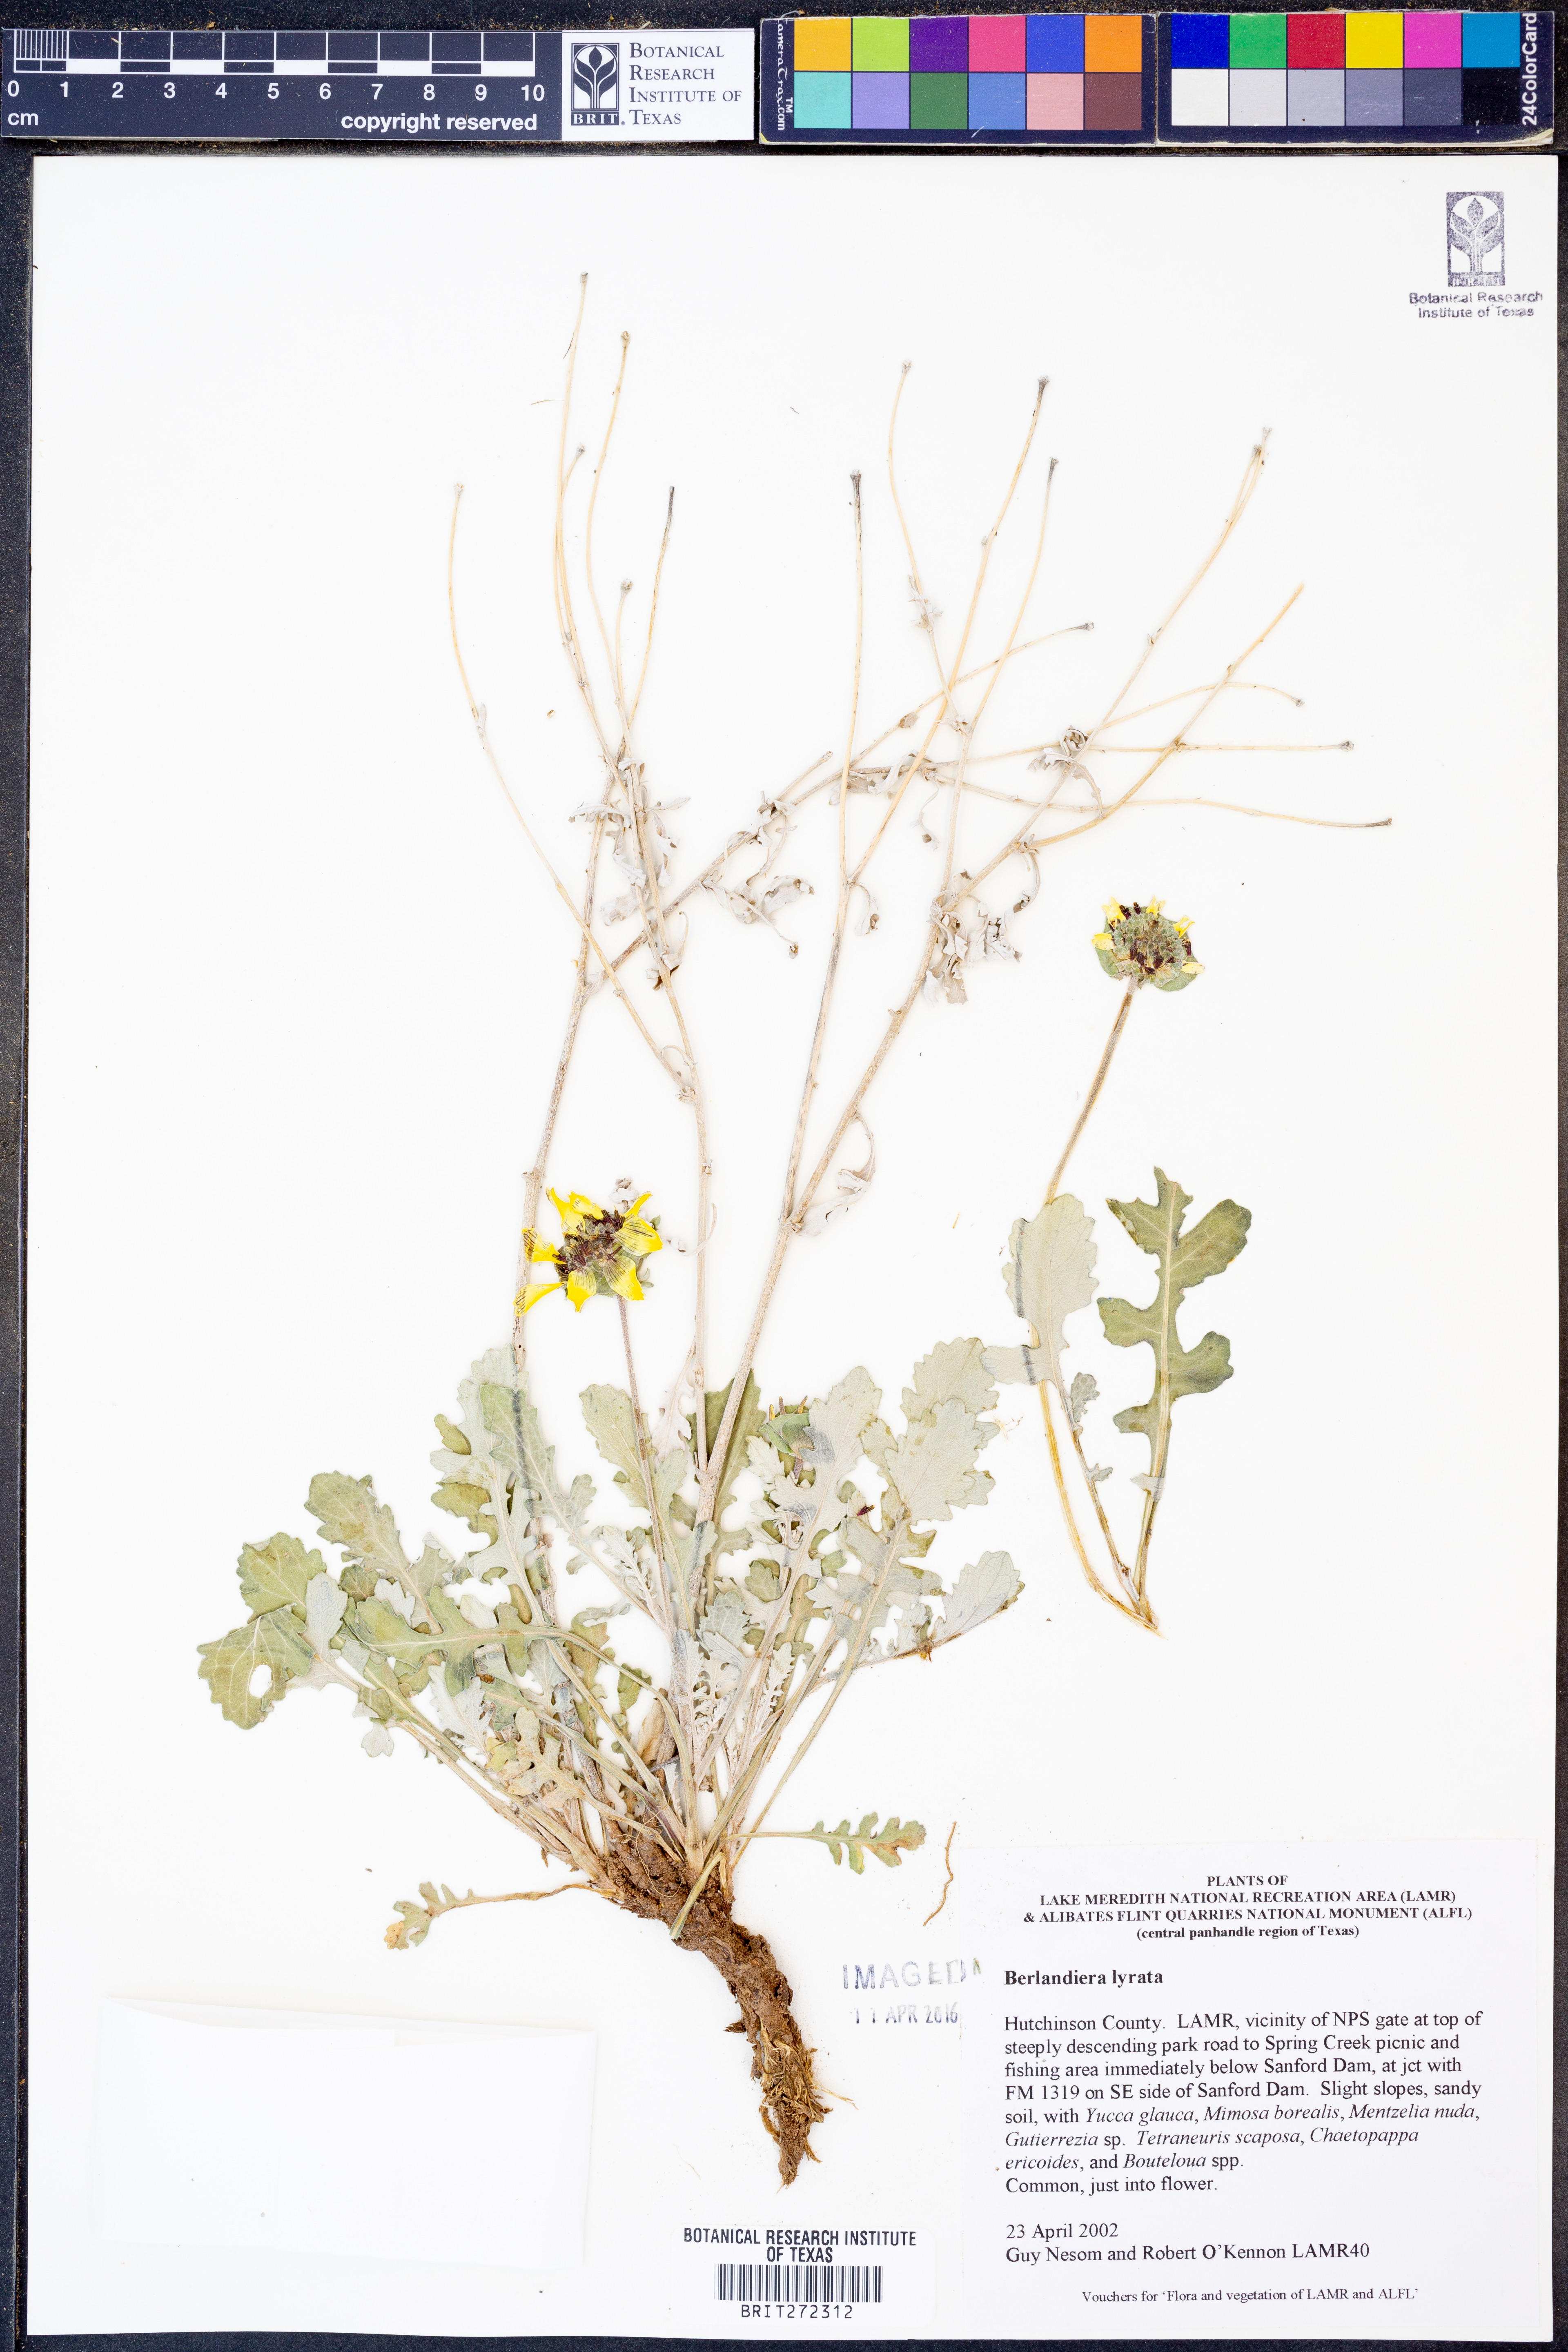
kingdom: Plantae
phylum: Tracheophyta
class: Magnoliopsida
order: Asterales
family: Asteraceae
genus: Berlandiera
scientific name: Berlandiera lyrata
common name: Chocolate-flower
